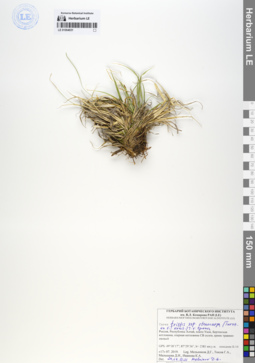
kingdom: Plantae
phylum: Tracheophyta
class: Liliopsida
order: Poales
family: Cyperaceae
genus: Carex
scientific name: Carex stenocarpa
